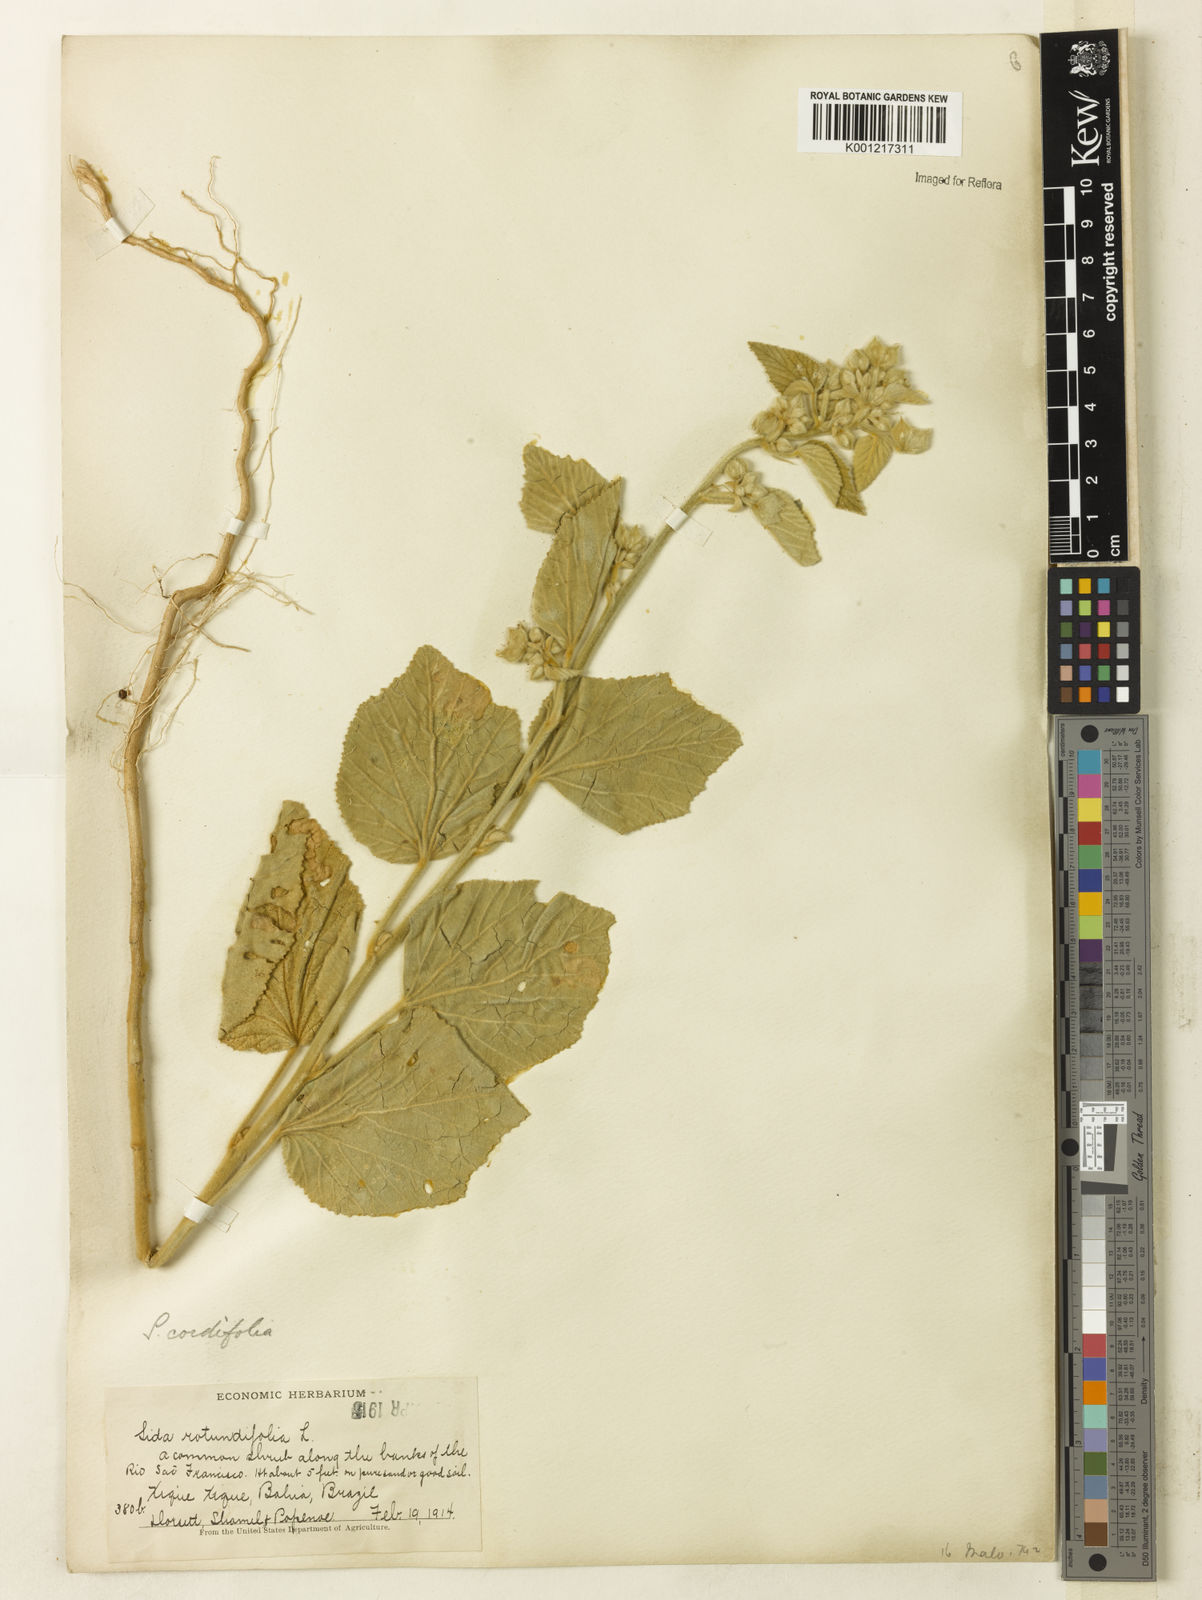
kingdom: Plantae
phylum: Tracheophyta
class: Magnoliopsida
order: Malvales
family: Malvaceae
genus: Sida
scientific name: Sida cordifolia
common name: Ilima
